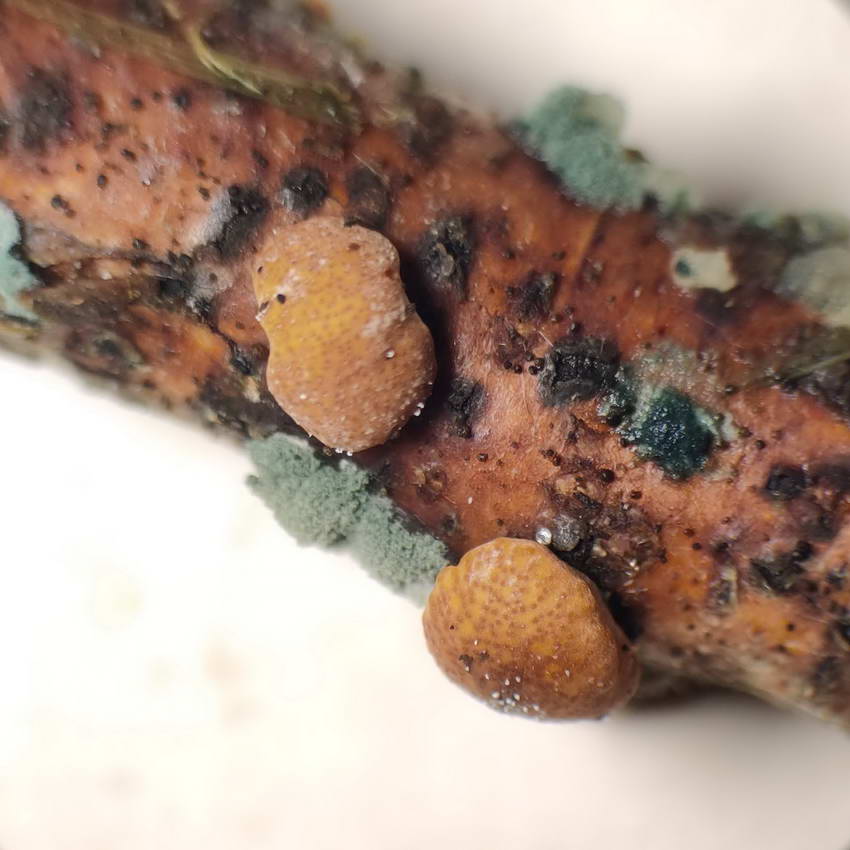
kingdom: Fungi
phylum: Ascomycota
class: Sordariomycetes
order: Hypocreales
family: Hypocreaceae
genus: Trichoderma
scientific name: Trichoderma europaeum
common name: rosabrun kødkerne
